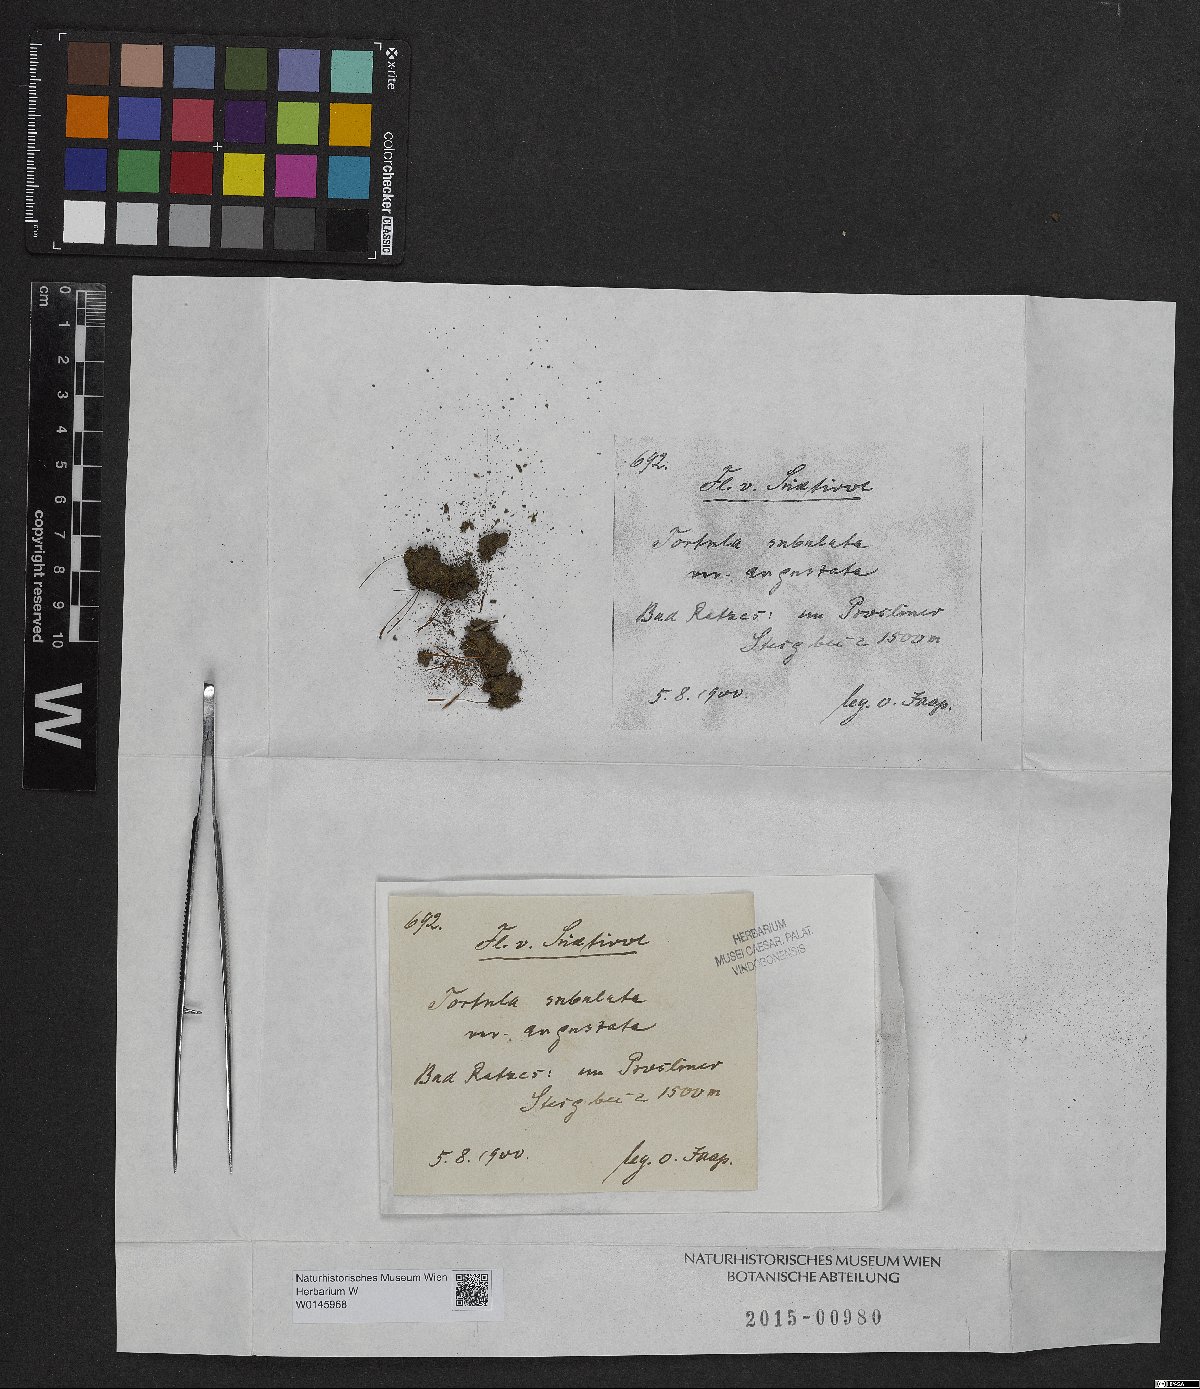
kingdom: Plantae
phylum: Bryophyta
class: Bryopsida
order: Pottiales
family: Pottiaceae
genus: Tortula
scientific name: Tortula subulata
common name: Upright screw-moss
